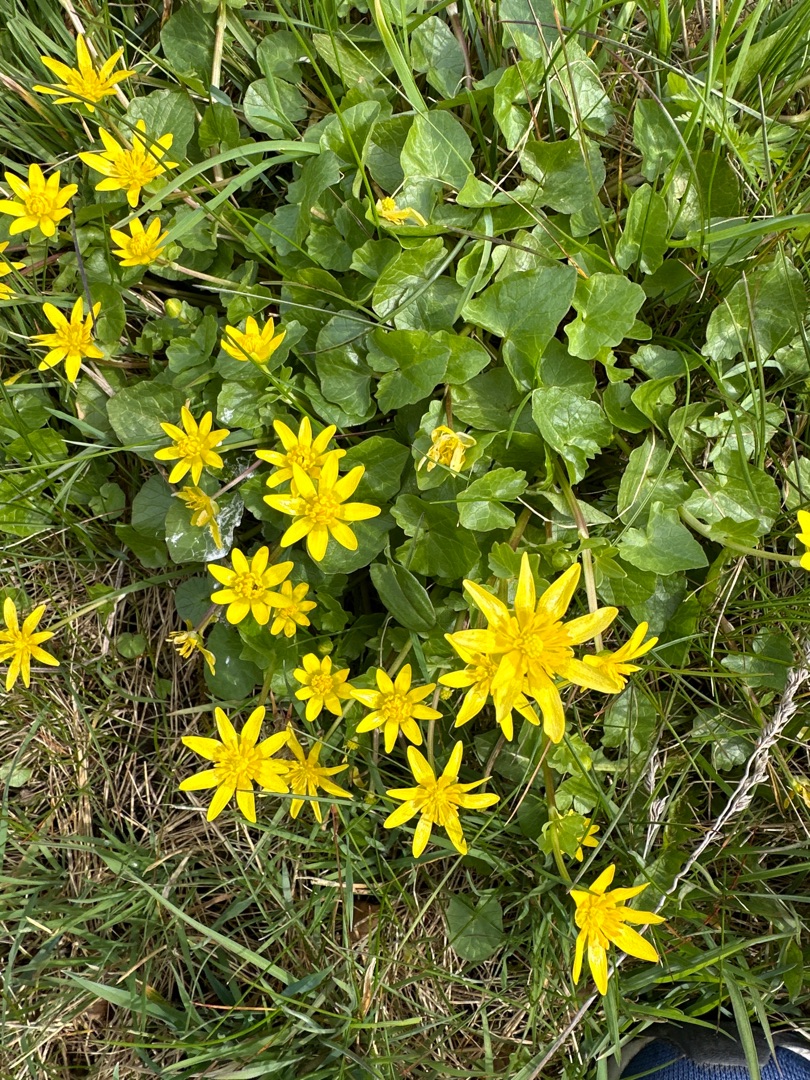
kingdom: Plantae
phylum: Tracheophyta
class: Magnoliopsida
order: Ranunculales
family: Ranunculaceae
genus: Ficaria
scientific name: Ficaria verna
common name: Vorterod
